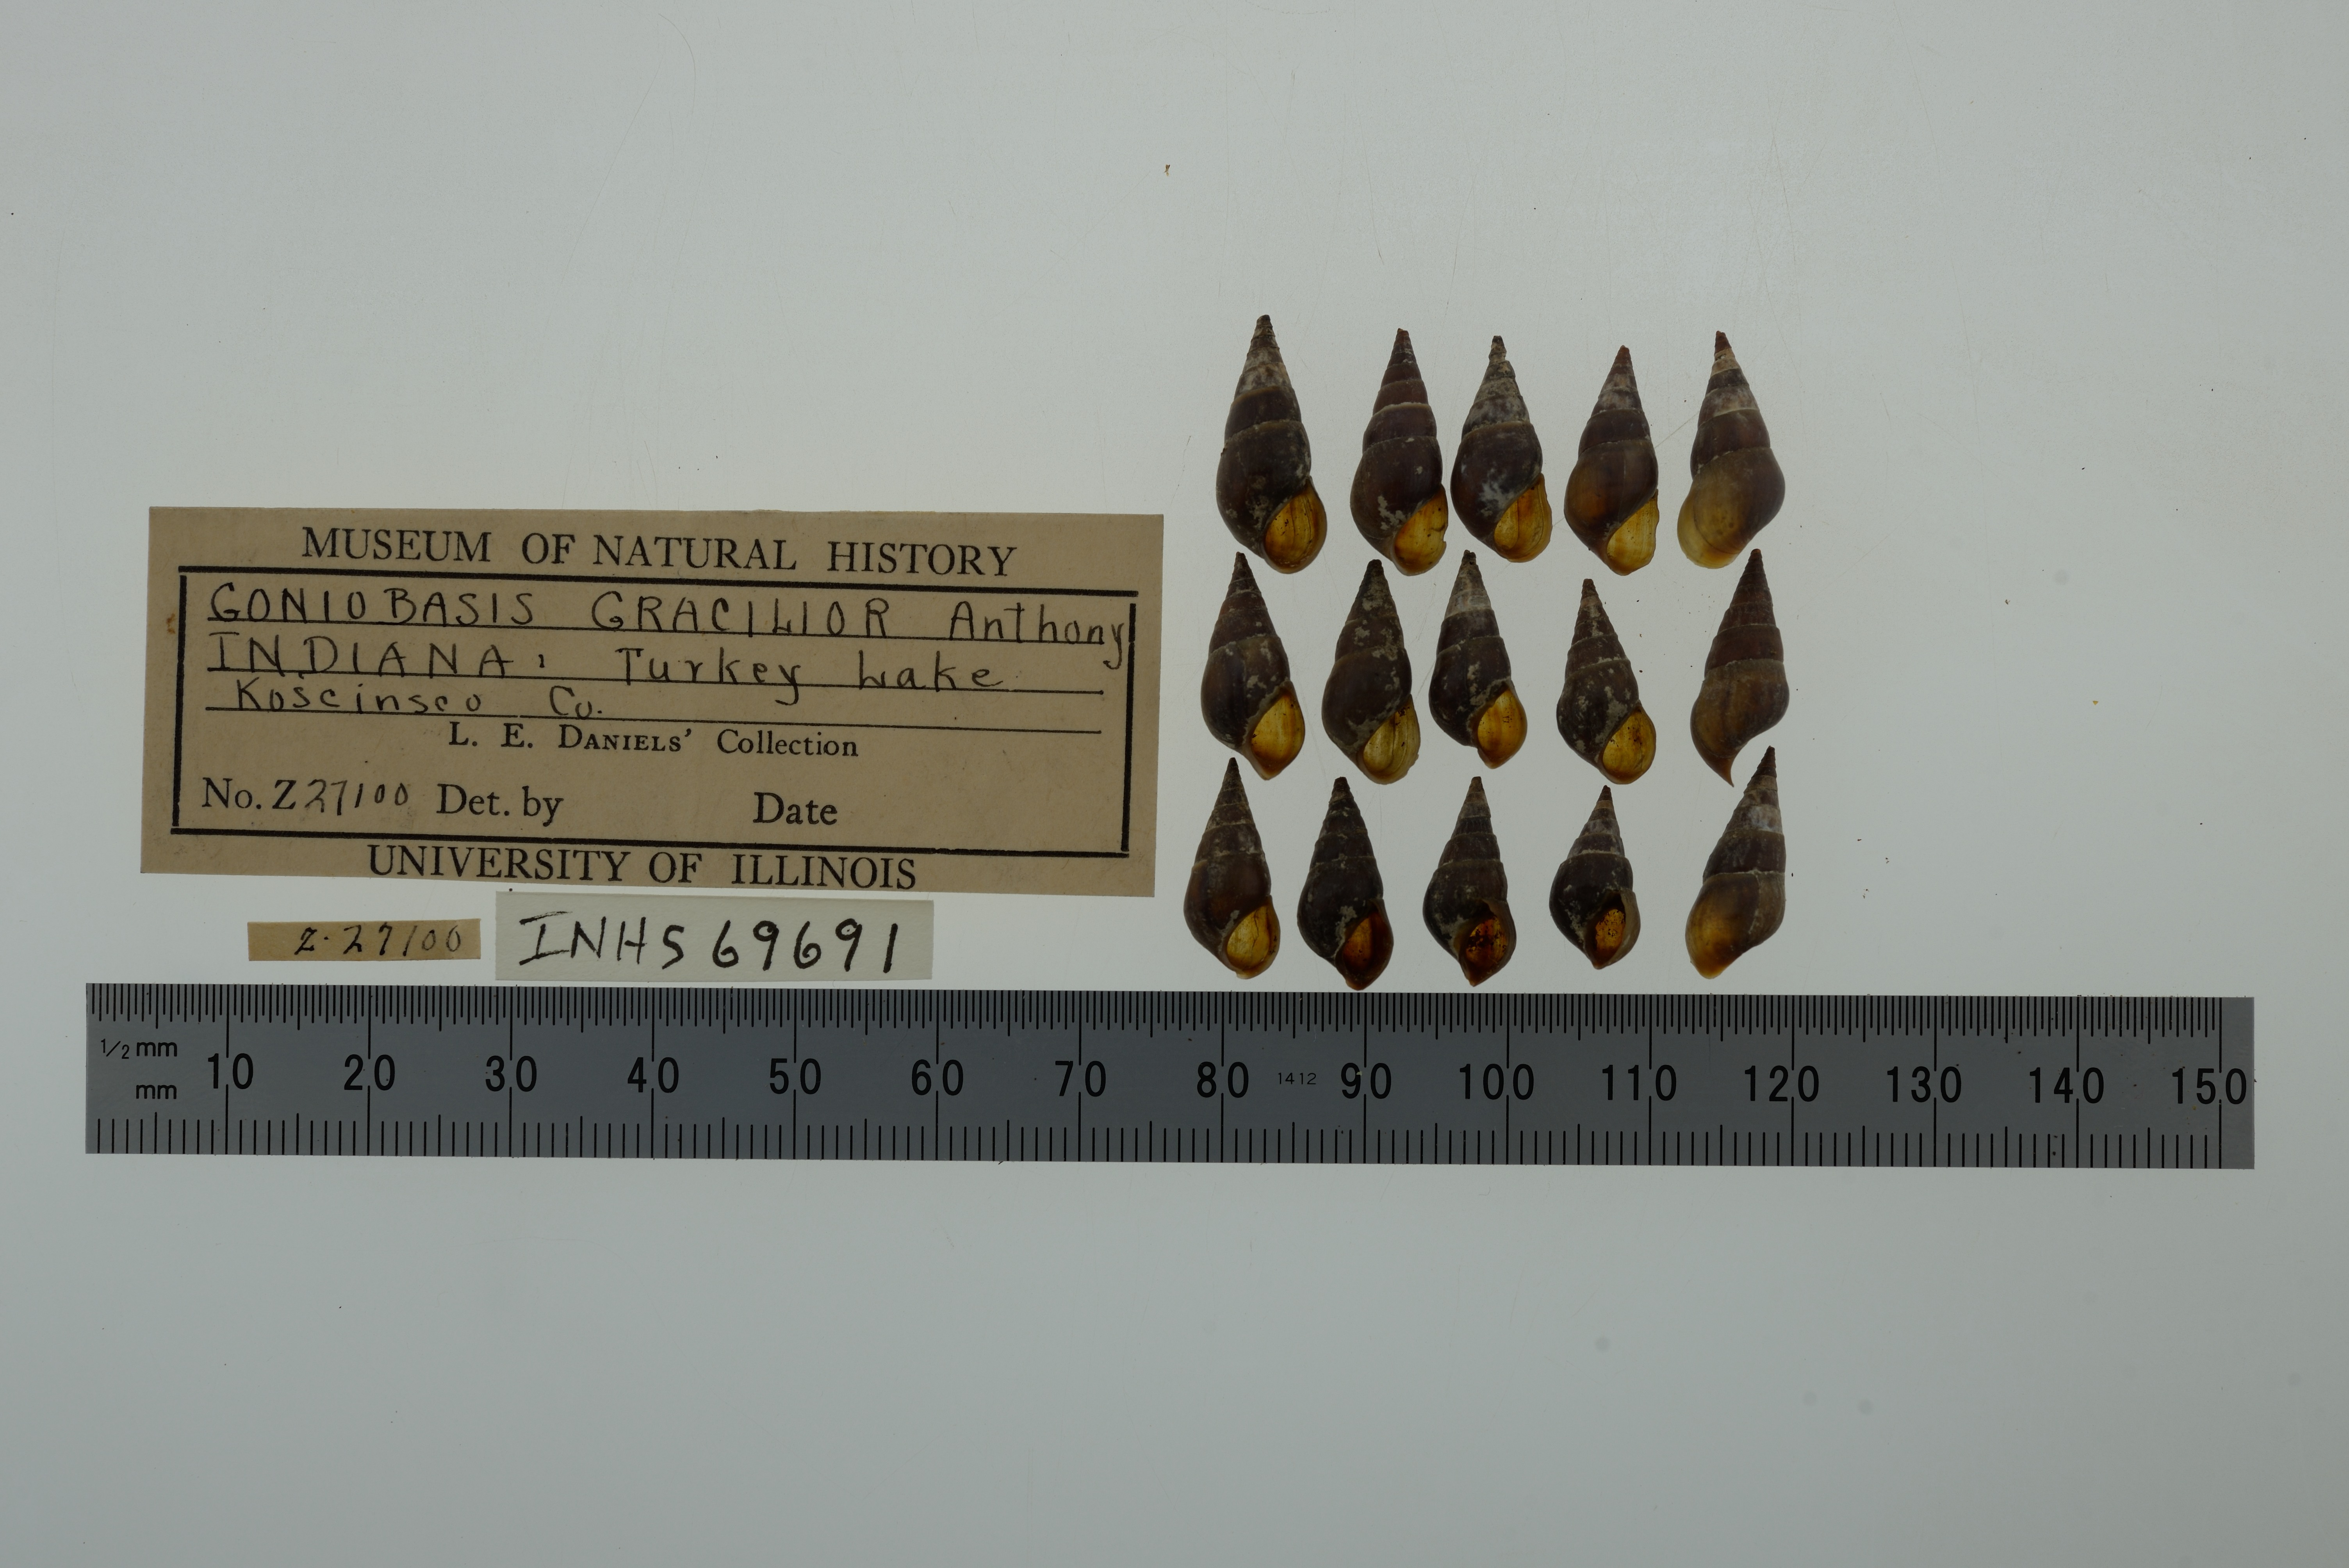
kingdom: Animalia
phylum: Mollusca
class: Gastropoda
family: Pleuroceridae
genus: Elimia
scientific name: Elimia livescens
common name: Liver elimia
